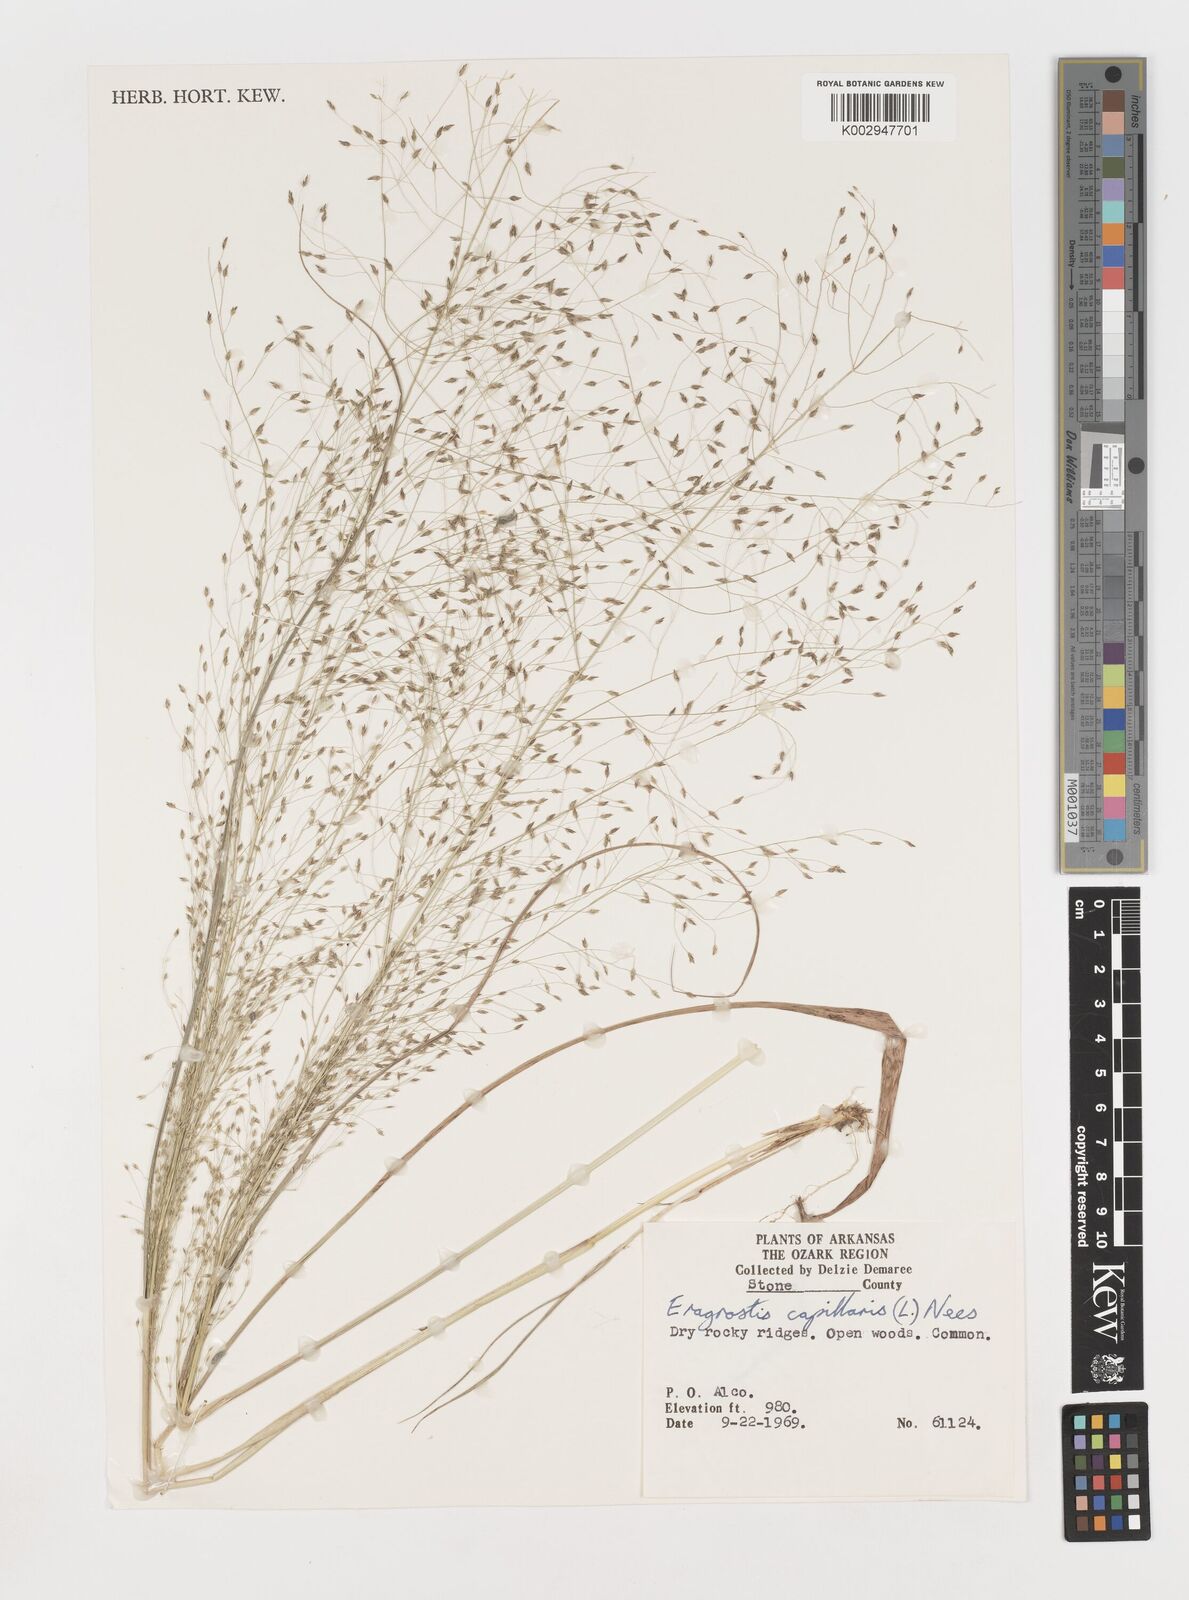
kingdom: Plantae
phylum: Tracheophyta
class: Liliopsida
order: Poales
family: Poaceae
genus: Eragrostis
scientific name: Eragrostis capillaris
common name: Hair-like lovegrass
